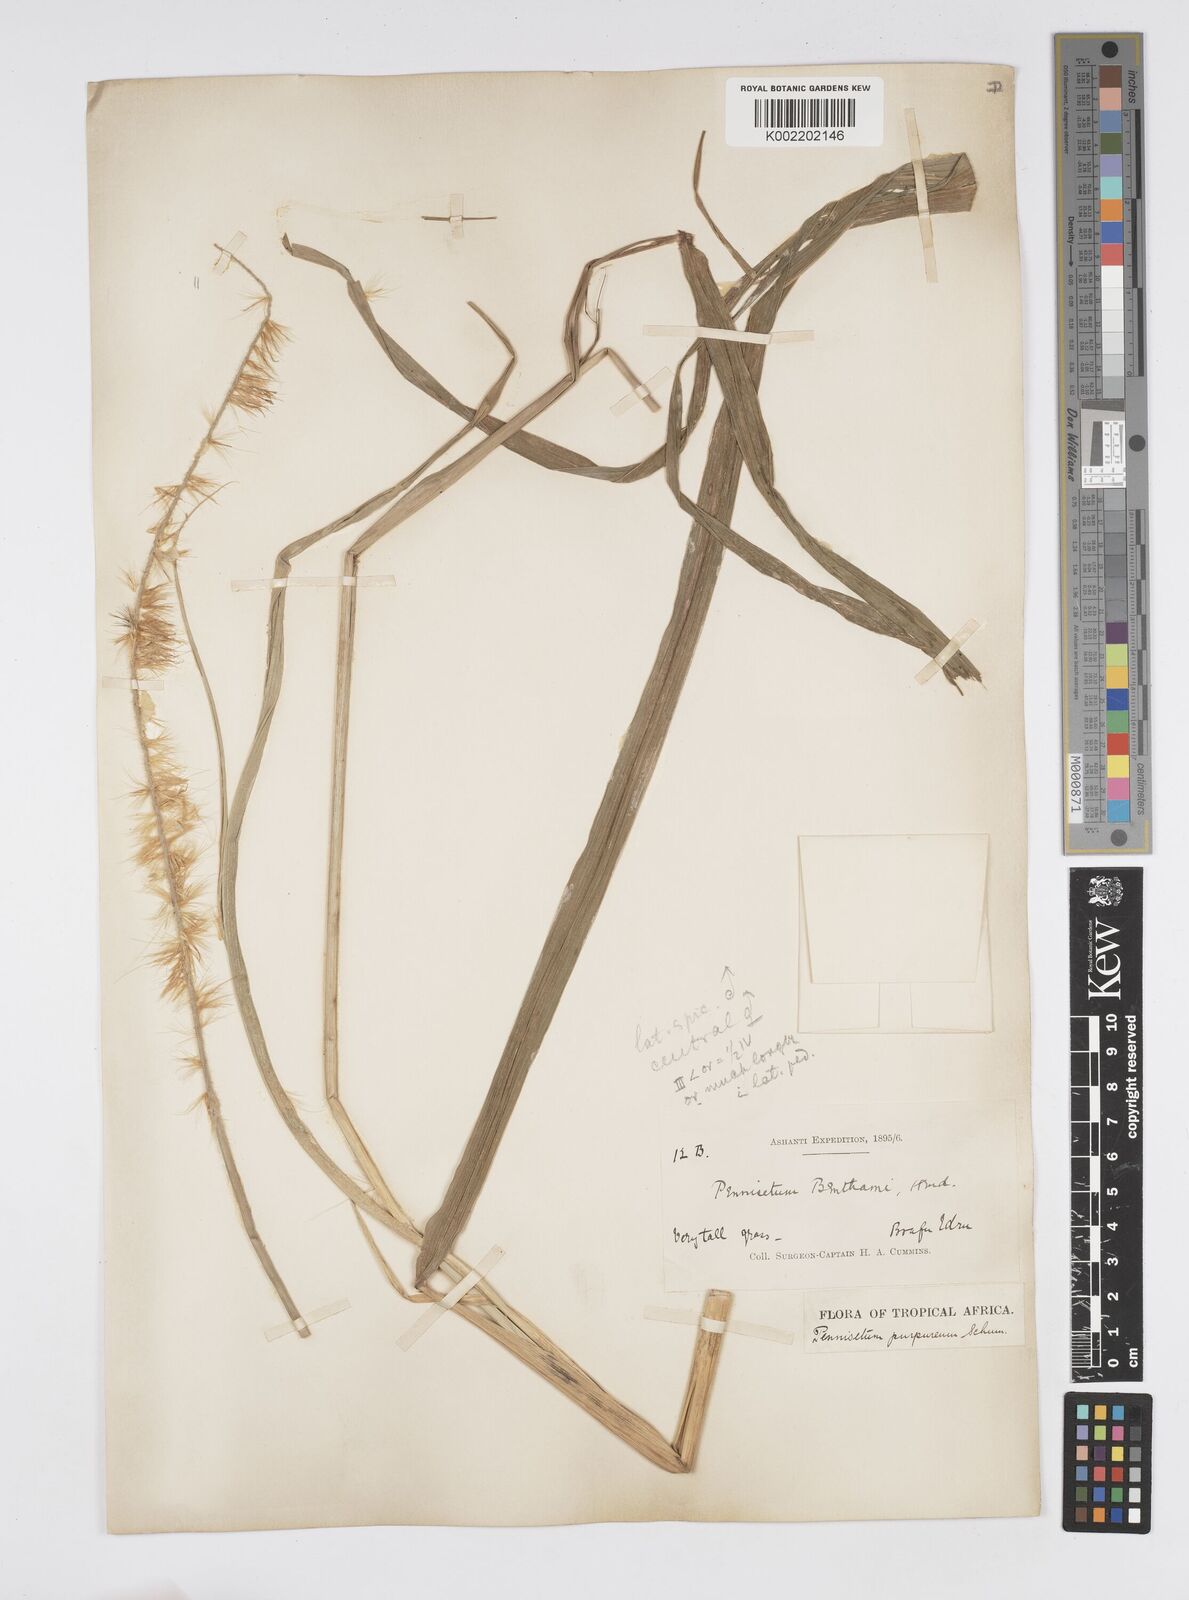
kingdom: Plantae
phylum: Tracheophyta
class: Liliopsida
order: Poales
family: Poaceae
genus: Cenchrus
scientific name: Cenchrus purpureus
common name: Elephant grass
